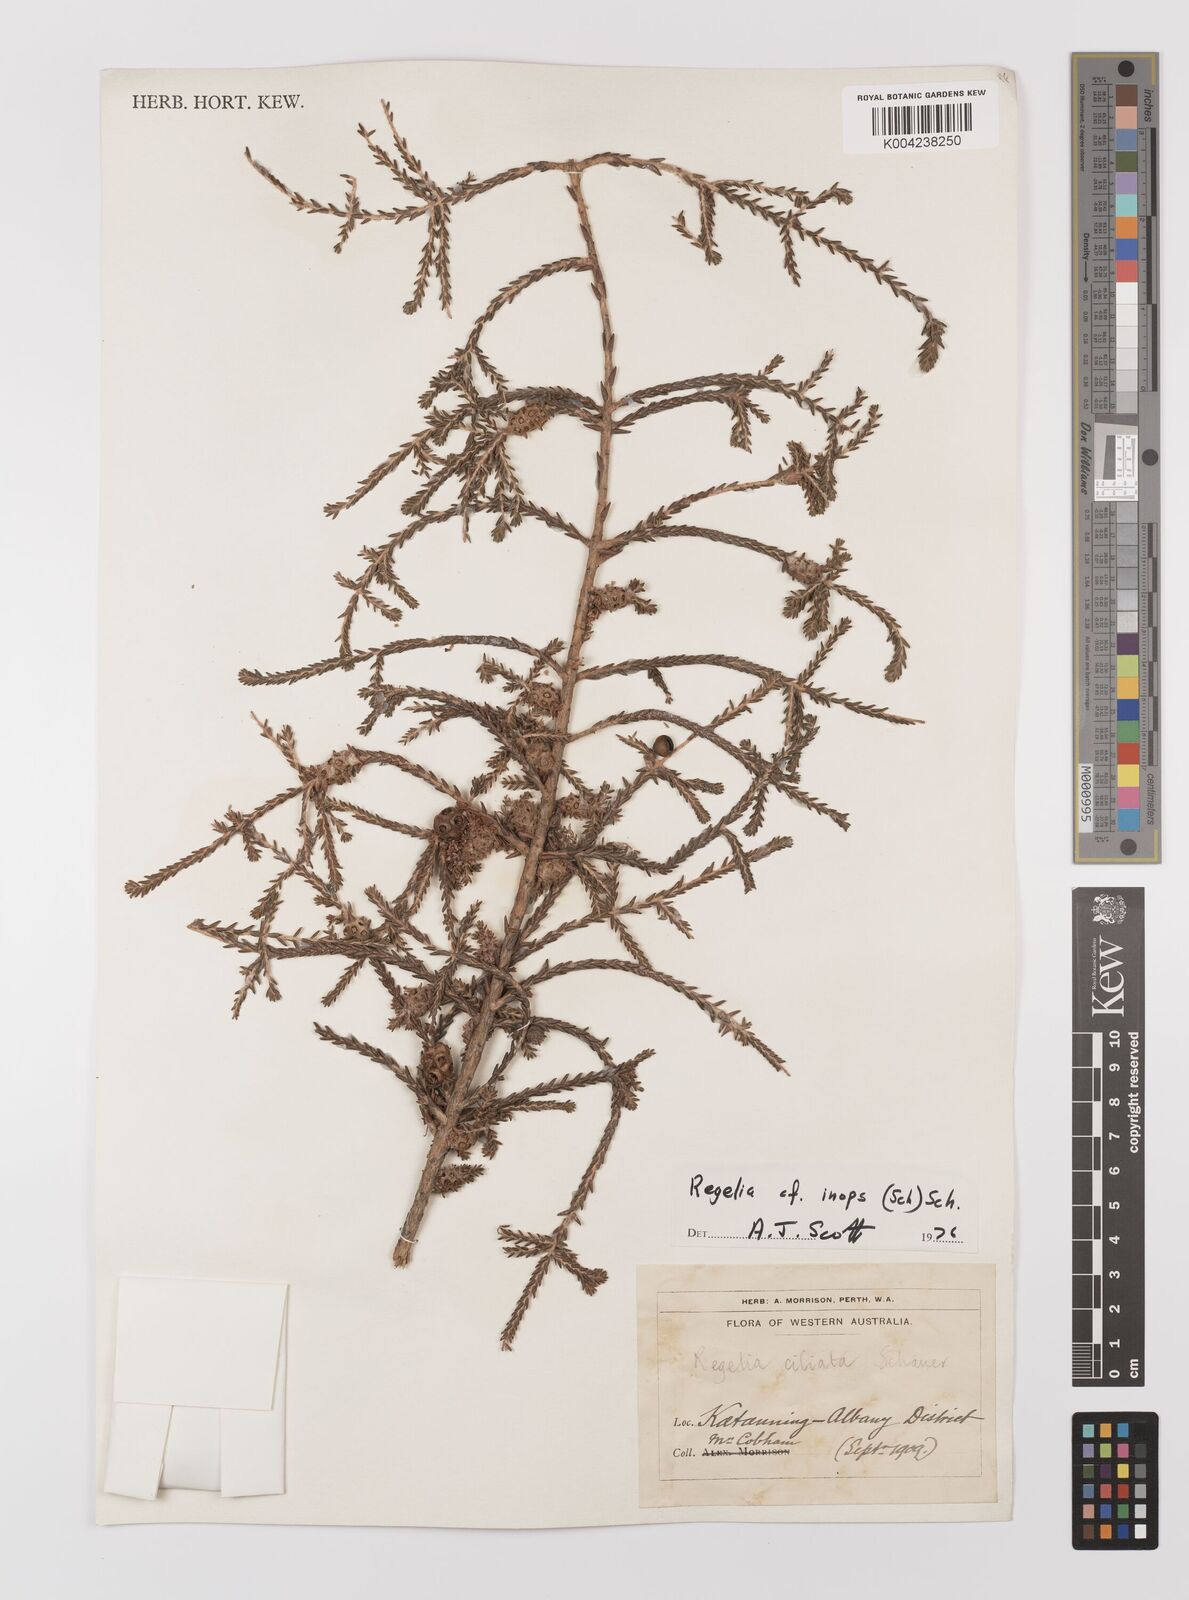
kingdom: Plantae
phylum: Tracheophyta
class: Magnoliopsida
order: Myrtales
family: Myrtaceae
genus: Melaleuca
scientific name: Melaleuca inops
